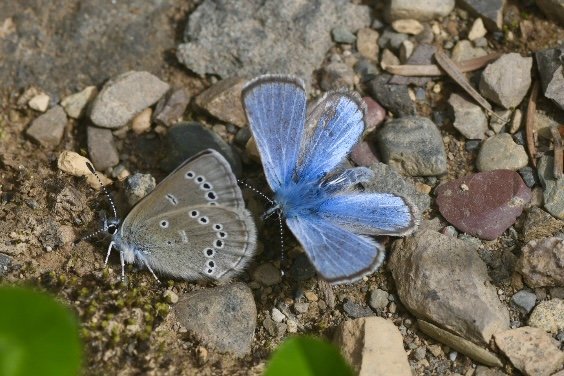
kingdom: Animalia
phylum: Arthropoda
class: Insecta
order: Lepidoptera
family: Lycaenidae
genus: Glaucopsyche
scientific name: Glaucopsyche lygdamus
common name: Silvery Blue
